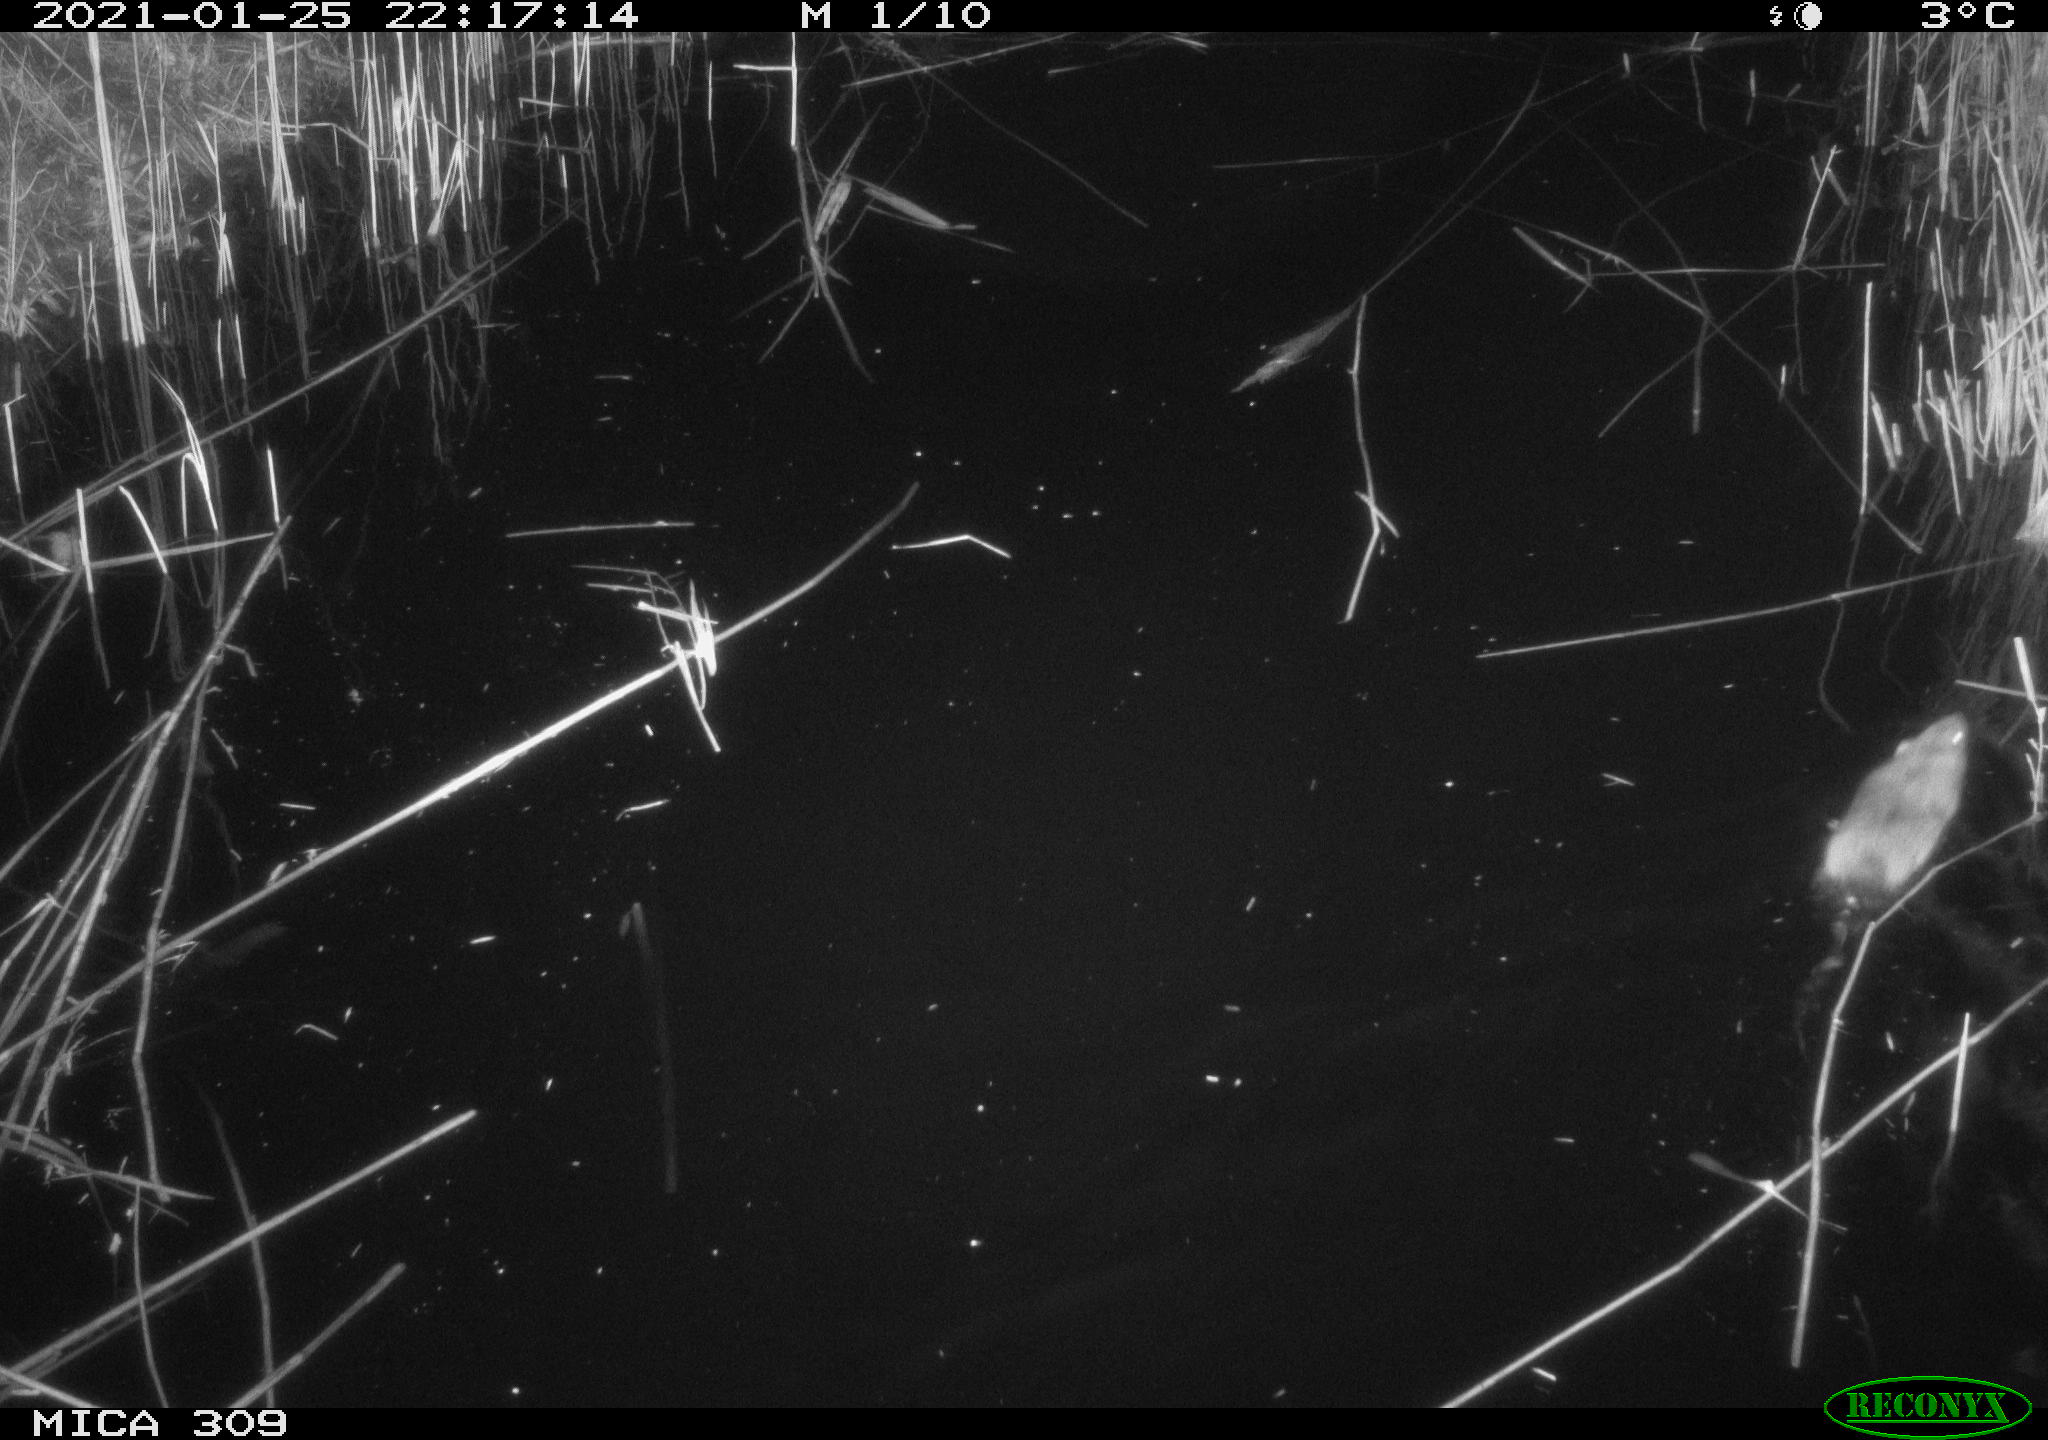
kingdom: Animalia
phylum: Chordata
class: Mammalia
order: Rodentia
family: Muridae
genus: Rattus
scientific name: Rattus norvegicus
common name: Brown rat
